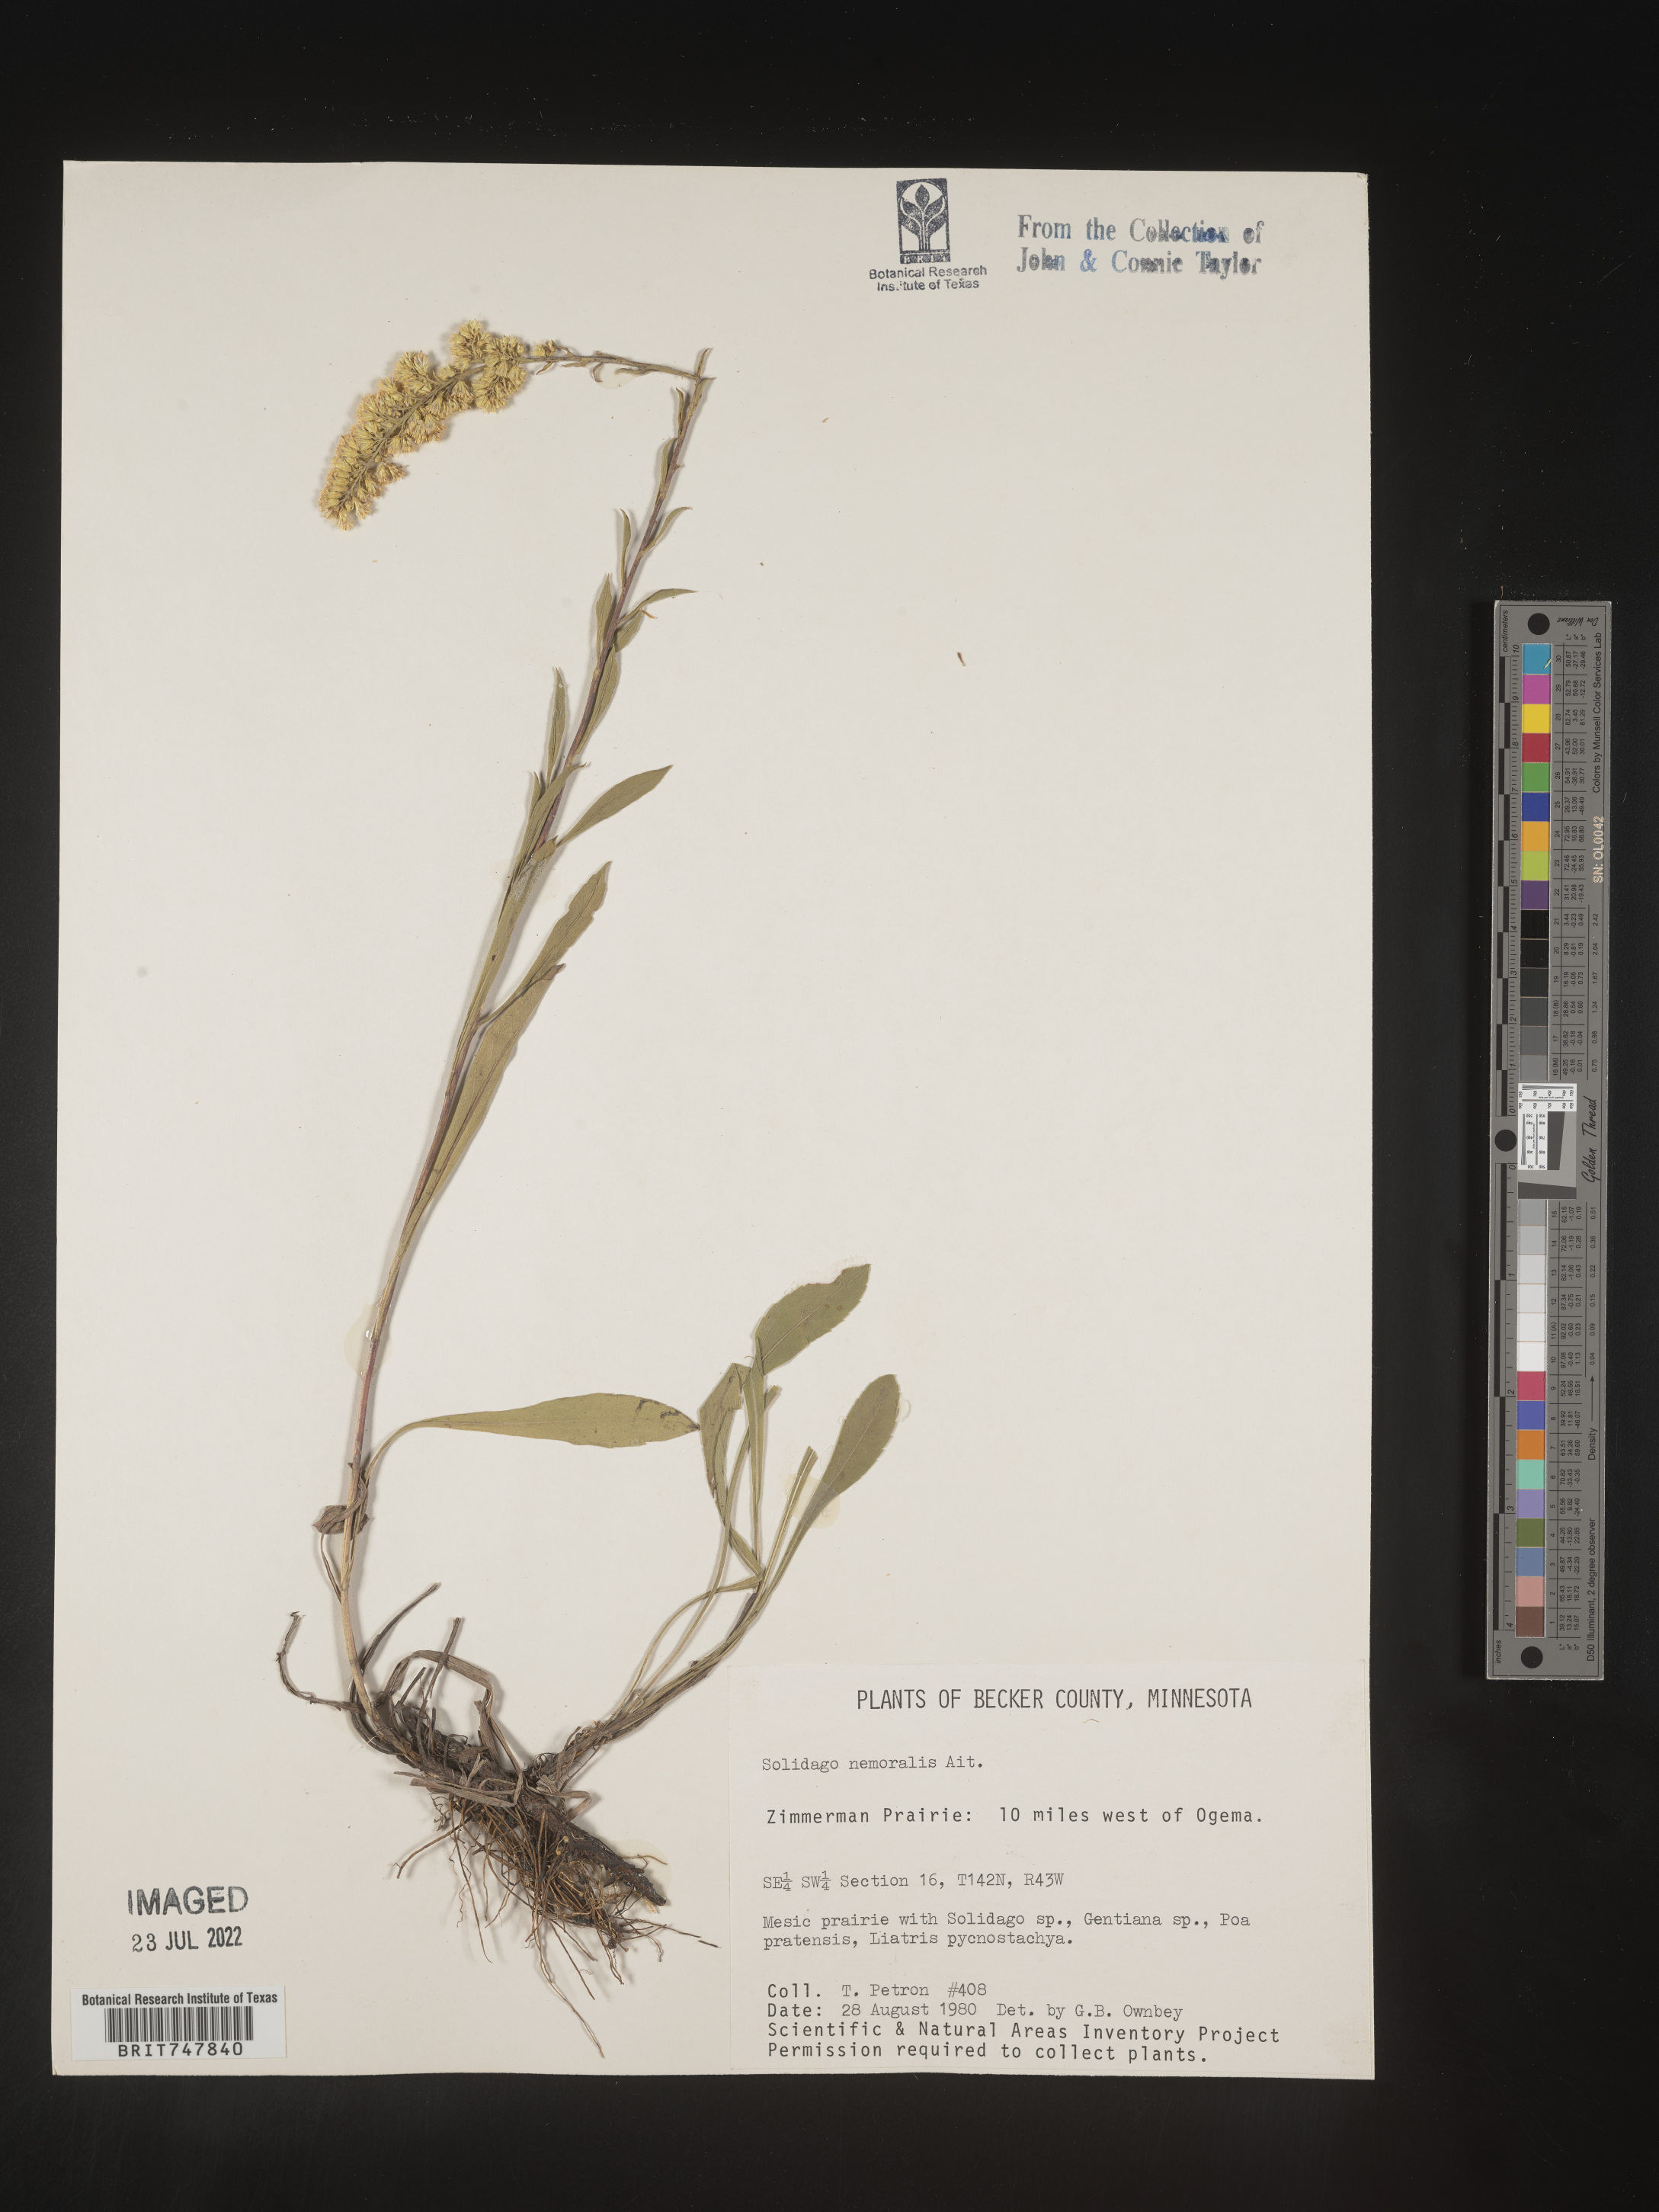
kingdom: Plantae
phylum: Tracheophyta
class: Magnoliopsida
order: Asterales
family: Asteraceae
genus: Solidago
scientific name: Solidago nemoralis
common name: Grey goldenrod
